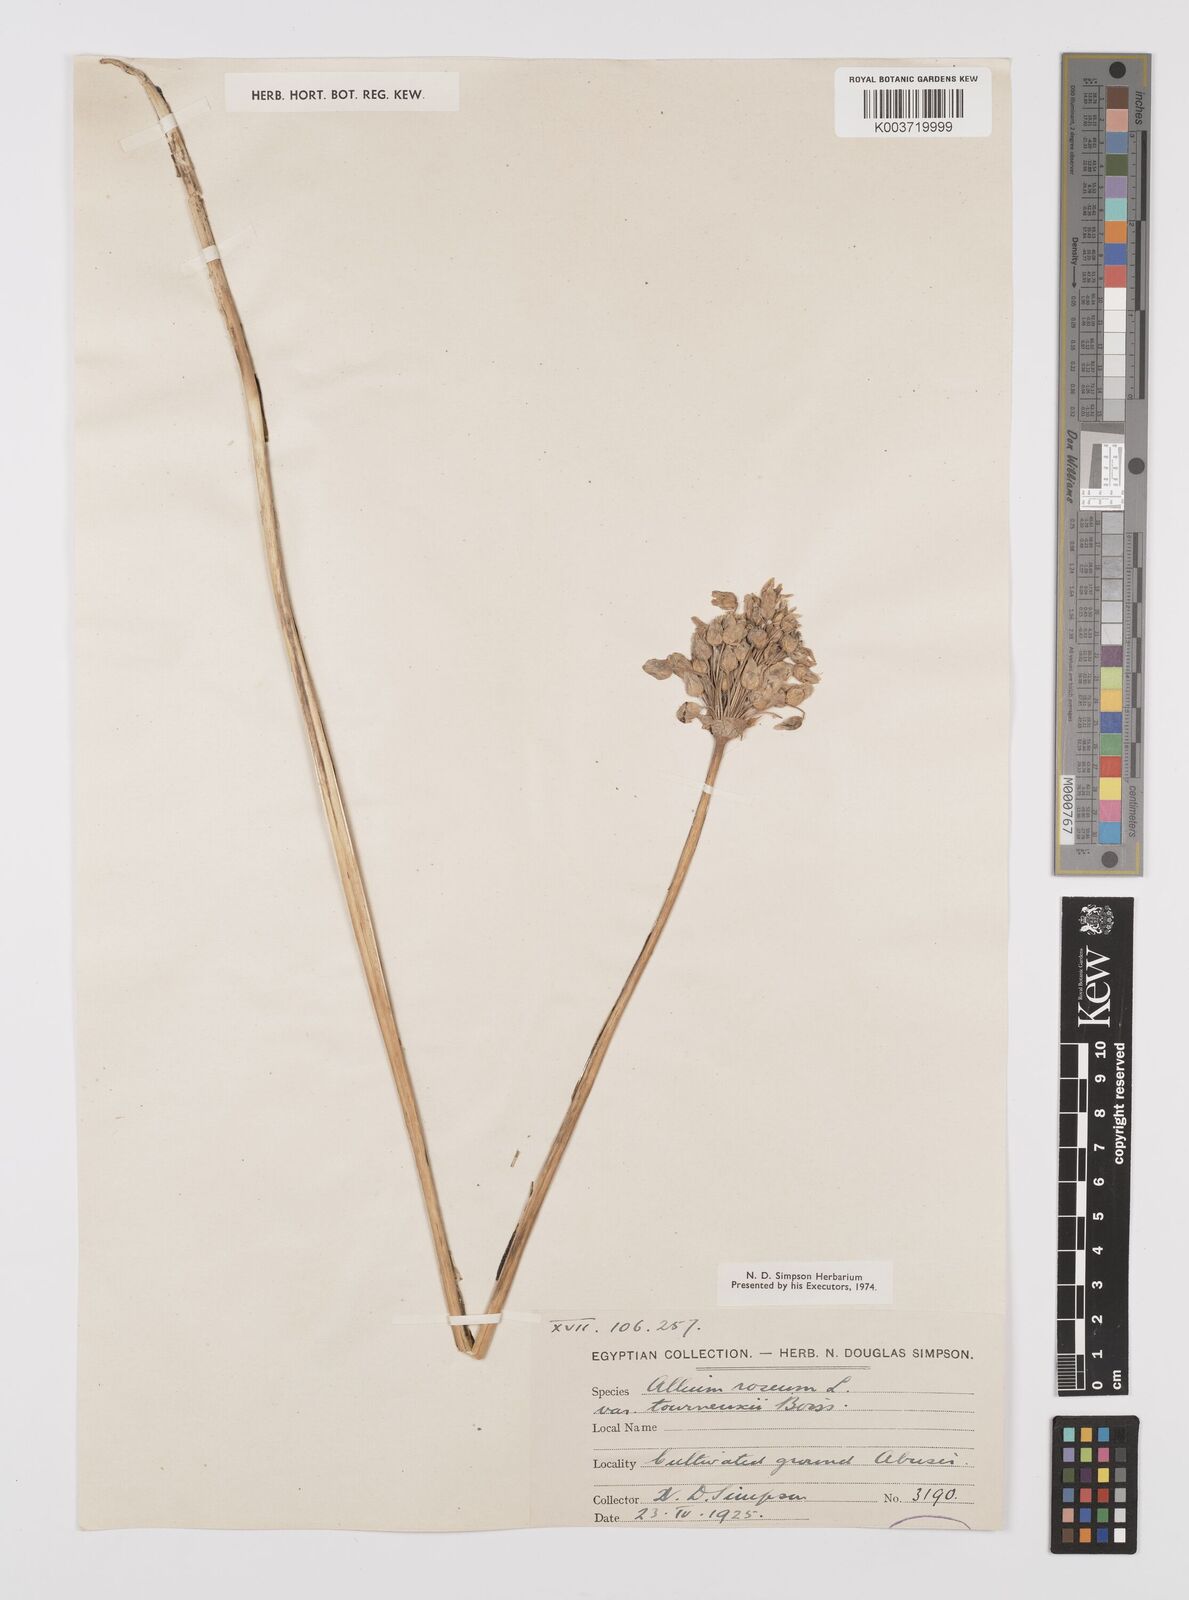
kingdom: Plantae
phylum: Tracheophyta
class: Liliopsida
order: Asparagales
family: Amaryllidaceae
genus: Allium
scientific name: Allium roseum
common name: Rosy garlic
